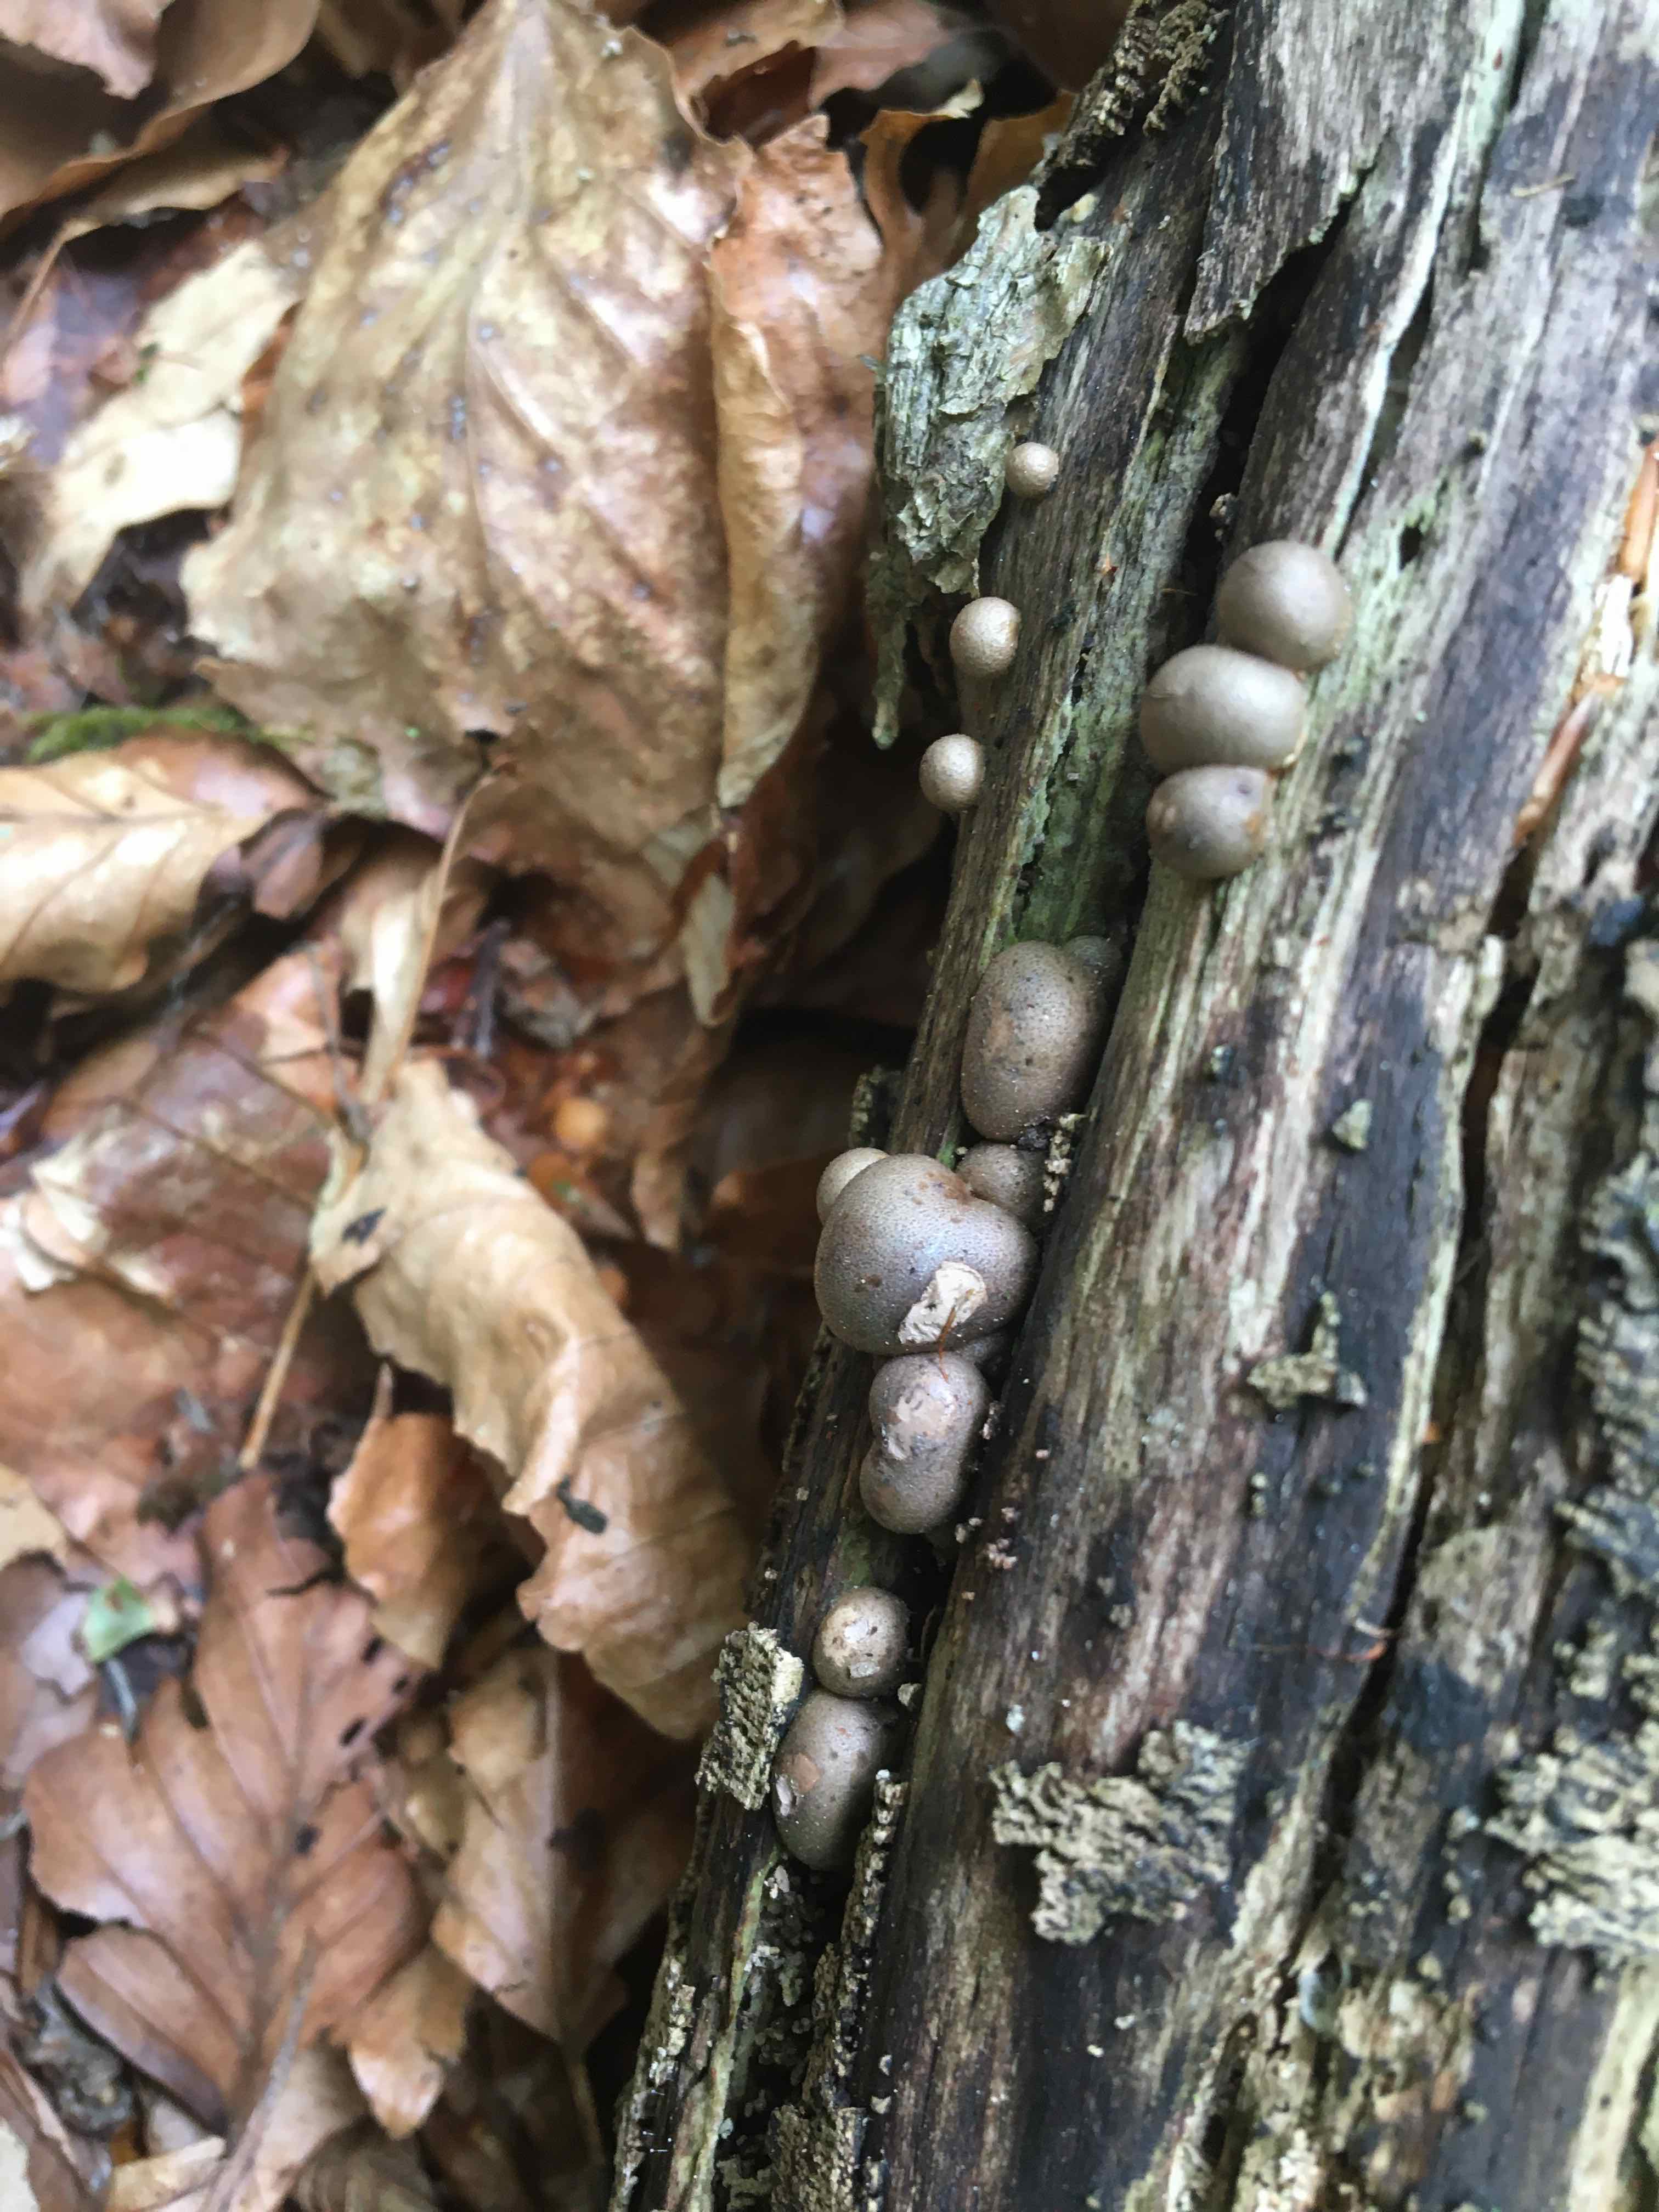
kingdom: Protozoa
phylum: Mycetozoa
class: Myxomycetes
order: Cribrariales
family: Tubiferaceae
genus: Lycogala
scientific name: Lycogala epidendrum
